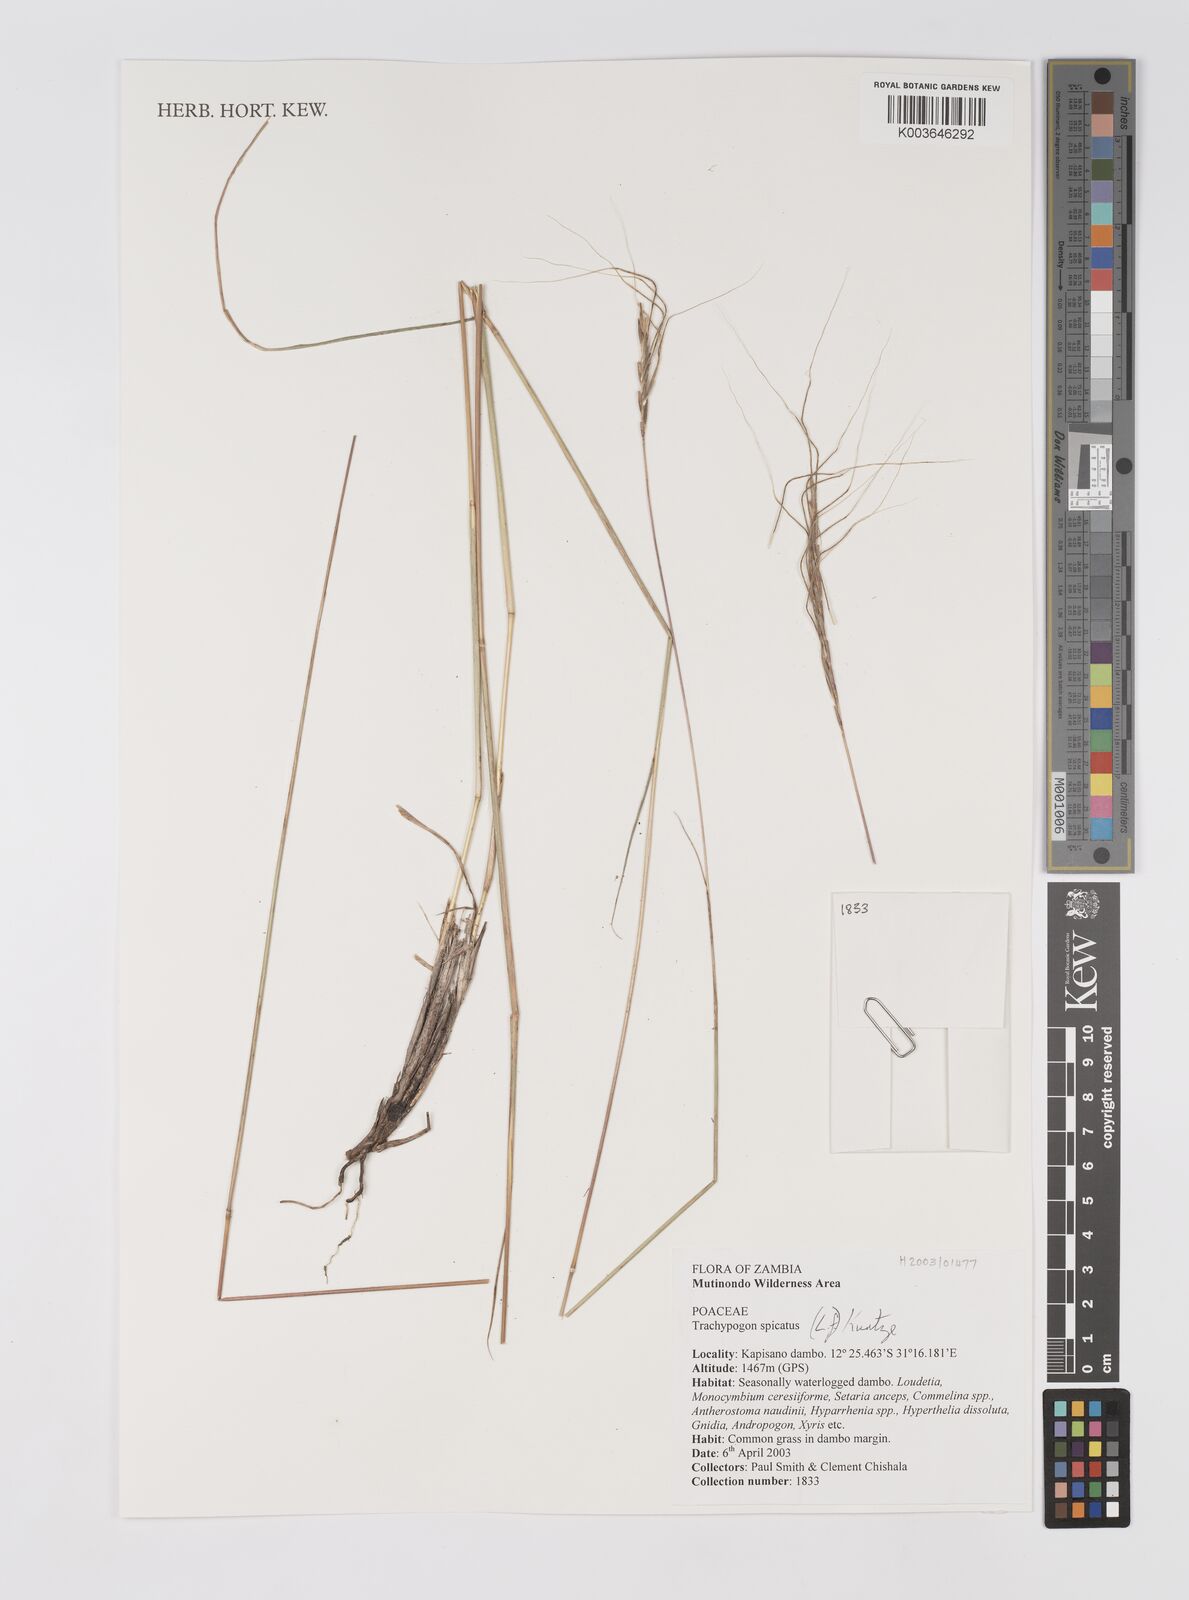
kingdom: Plantae
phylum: Tracheophyta
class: Liliopsida
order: Poales
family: Poaceae
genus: Trachypogon
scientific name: Trachypogon spicatus
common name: Crinkle-awn
